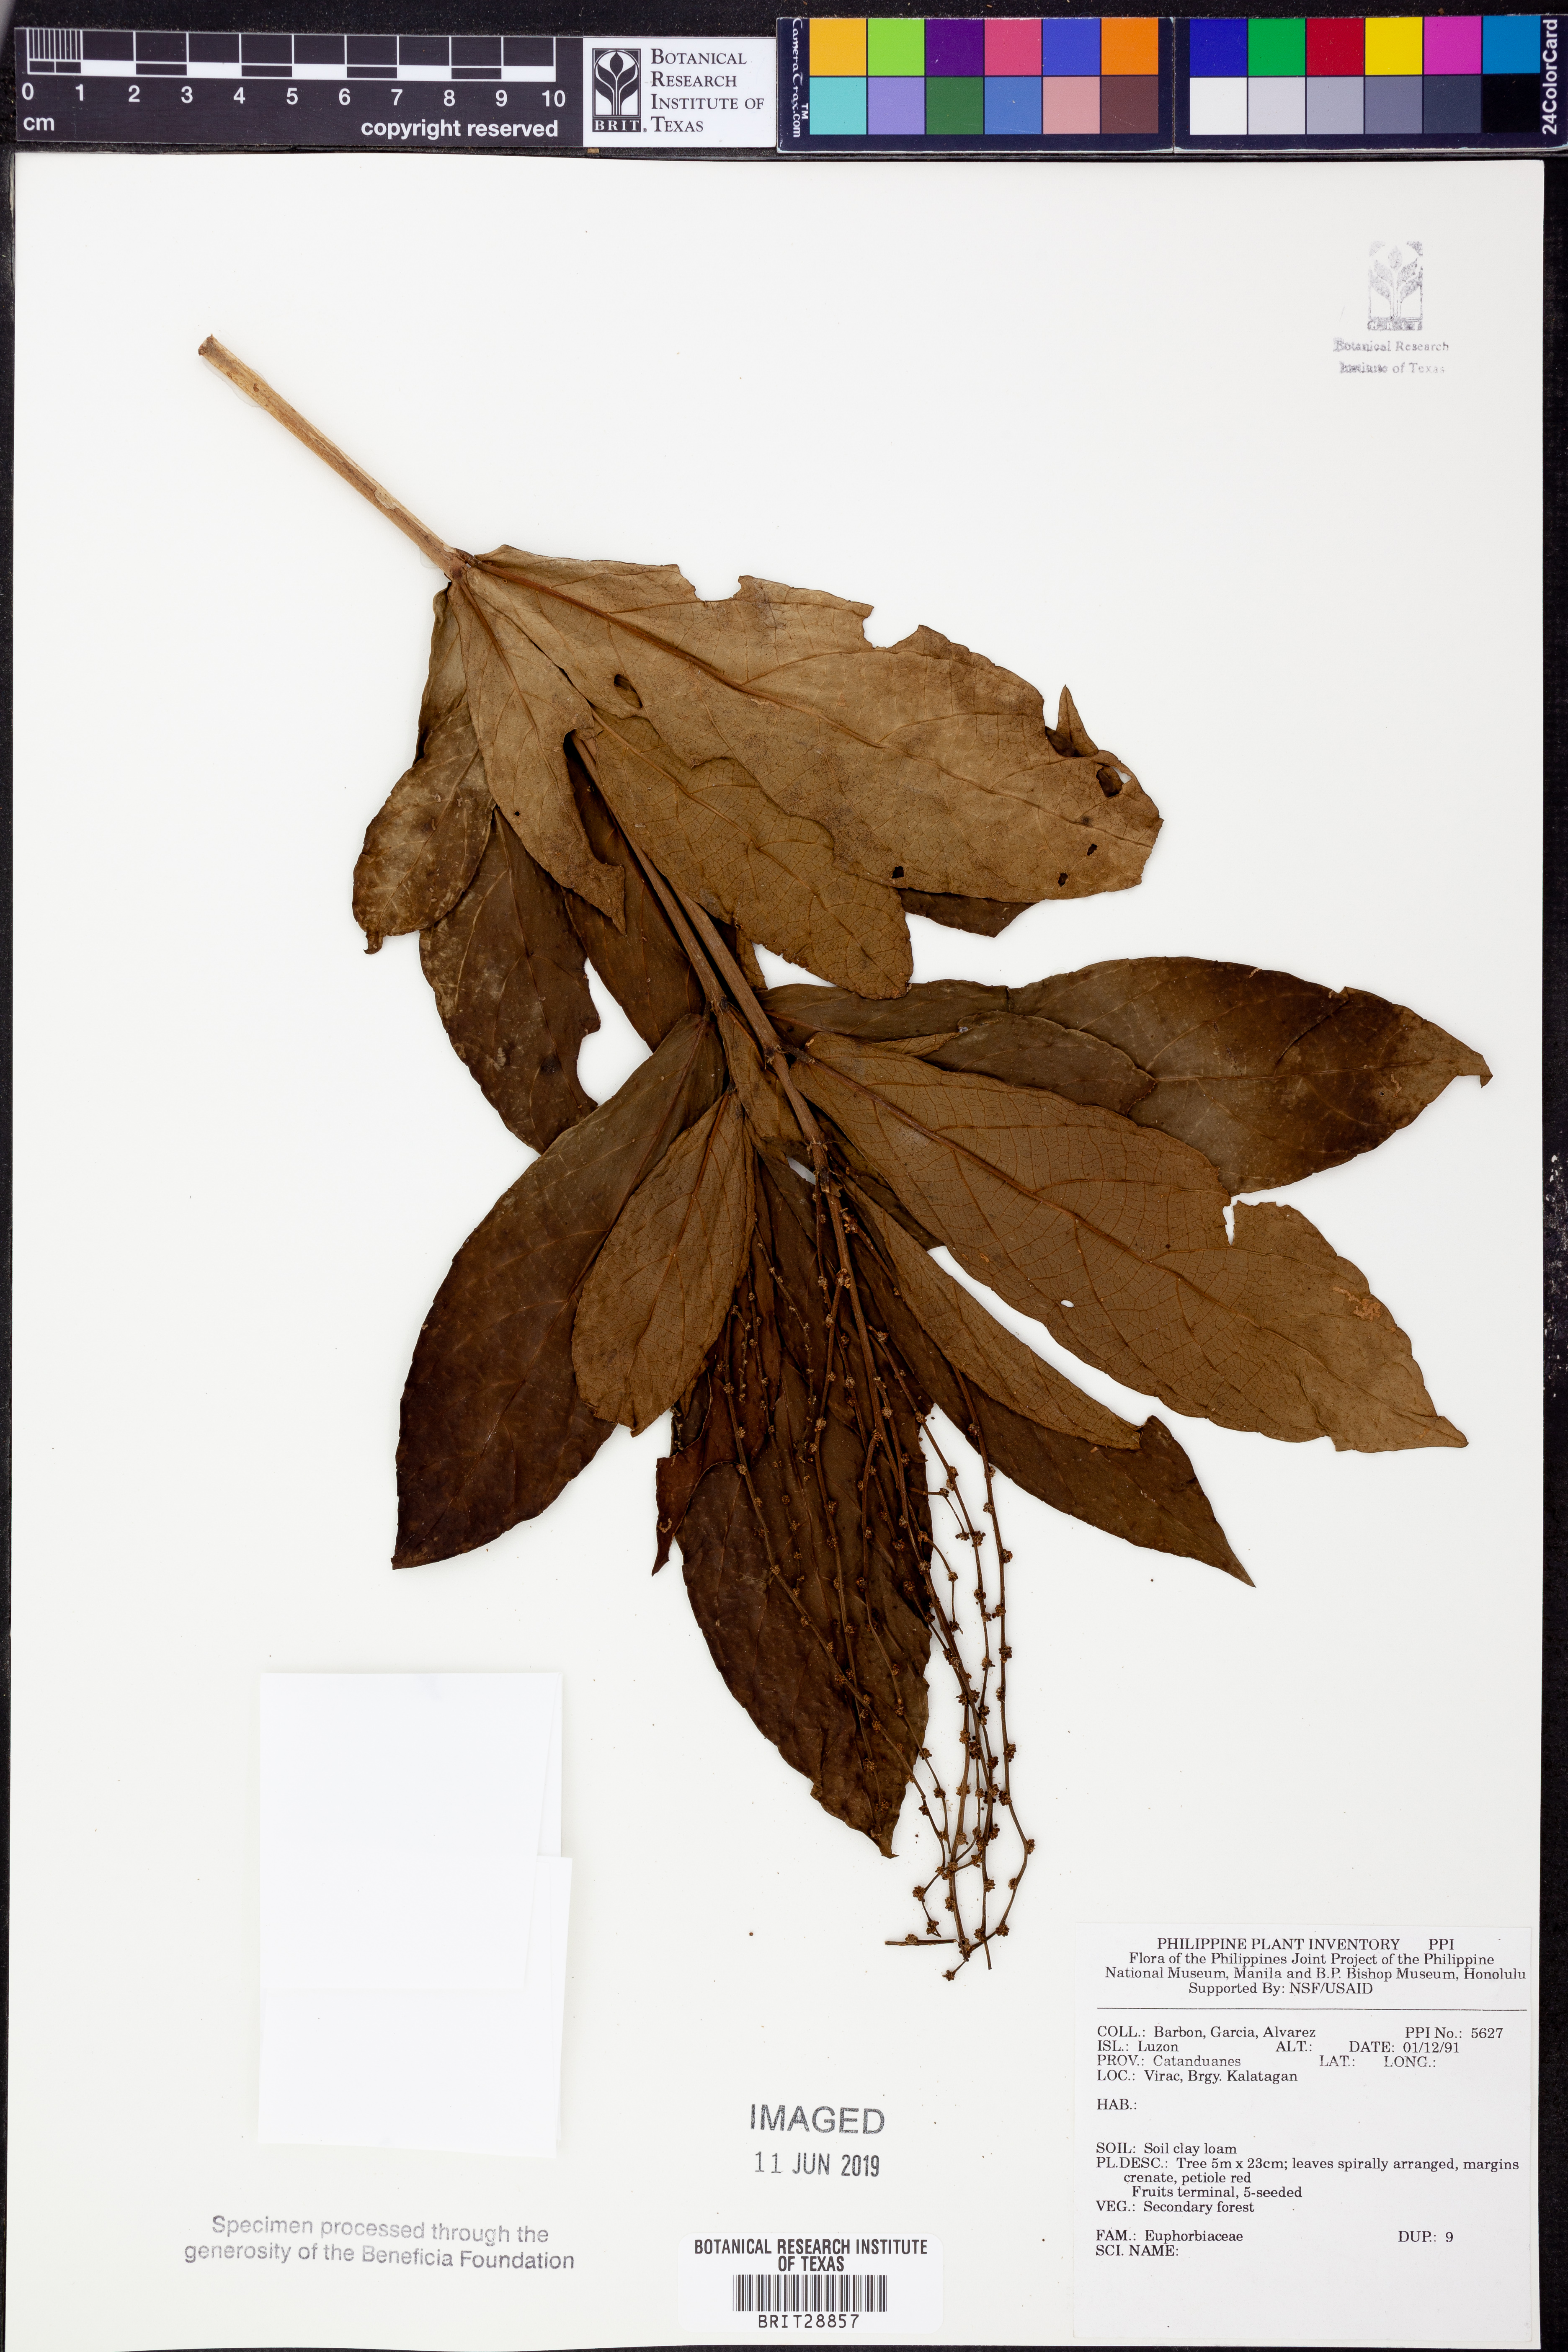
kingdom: Plantae
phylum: Tracheophyta
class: Magnoliopsida
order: Malpighiales
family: Euphorbiaceae
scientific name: Euphorbiaceae
